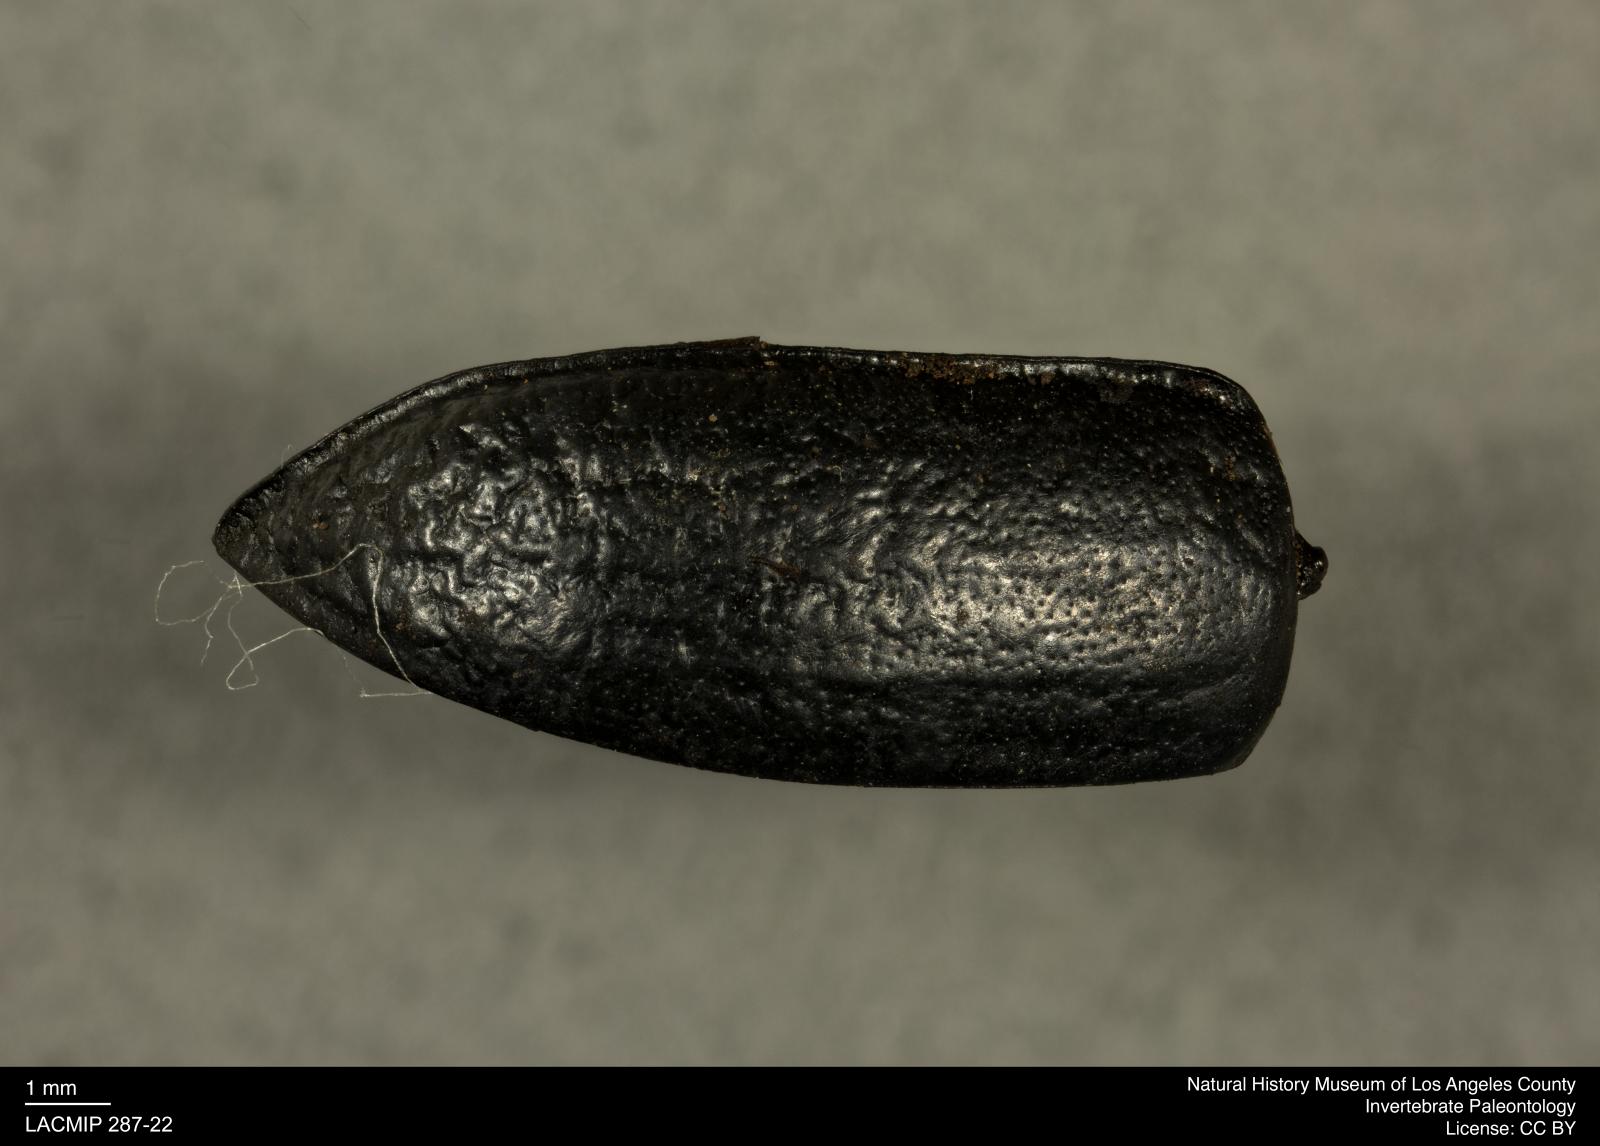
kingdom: Animalia
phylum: Arthropoda
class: Insecta
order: Coleoptera
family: Tenebrionidae
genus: Coniontis
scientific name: Coniontis abdominalis
